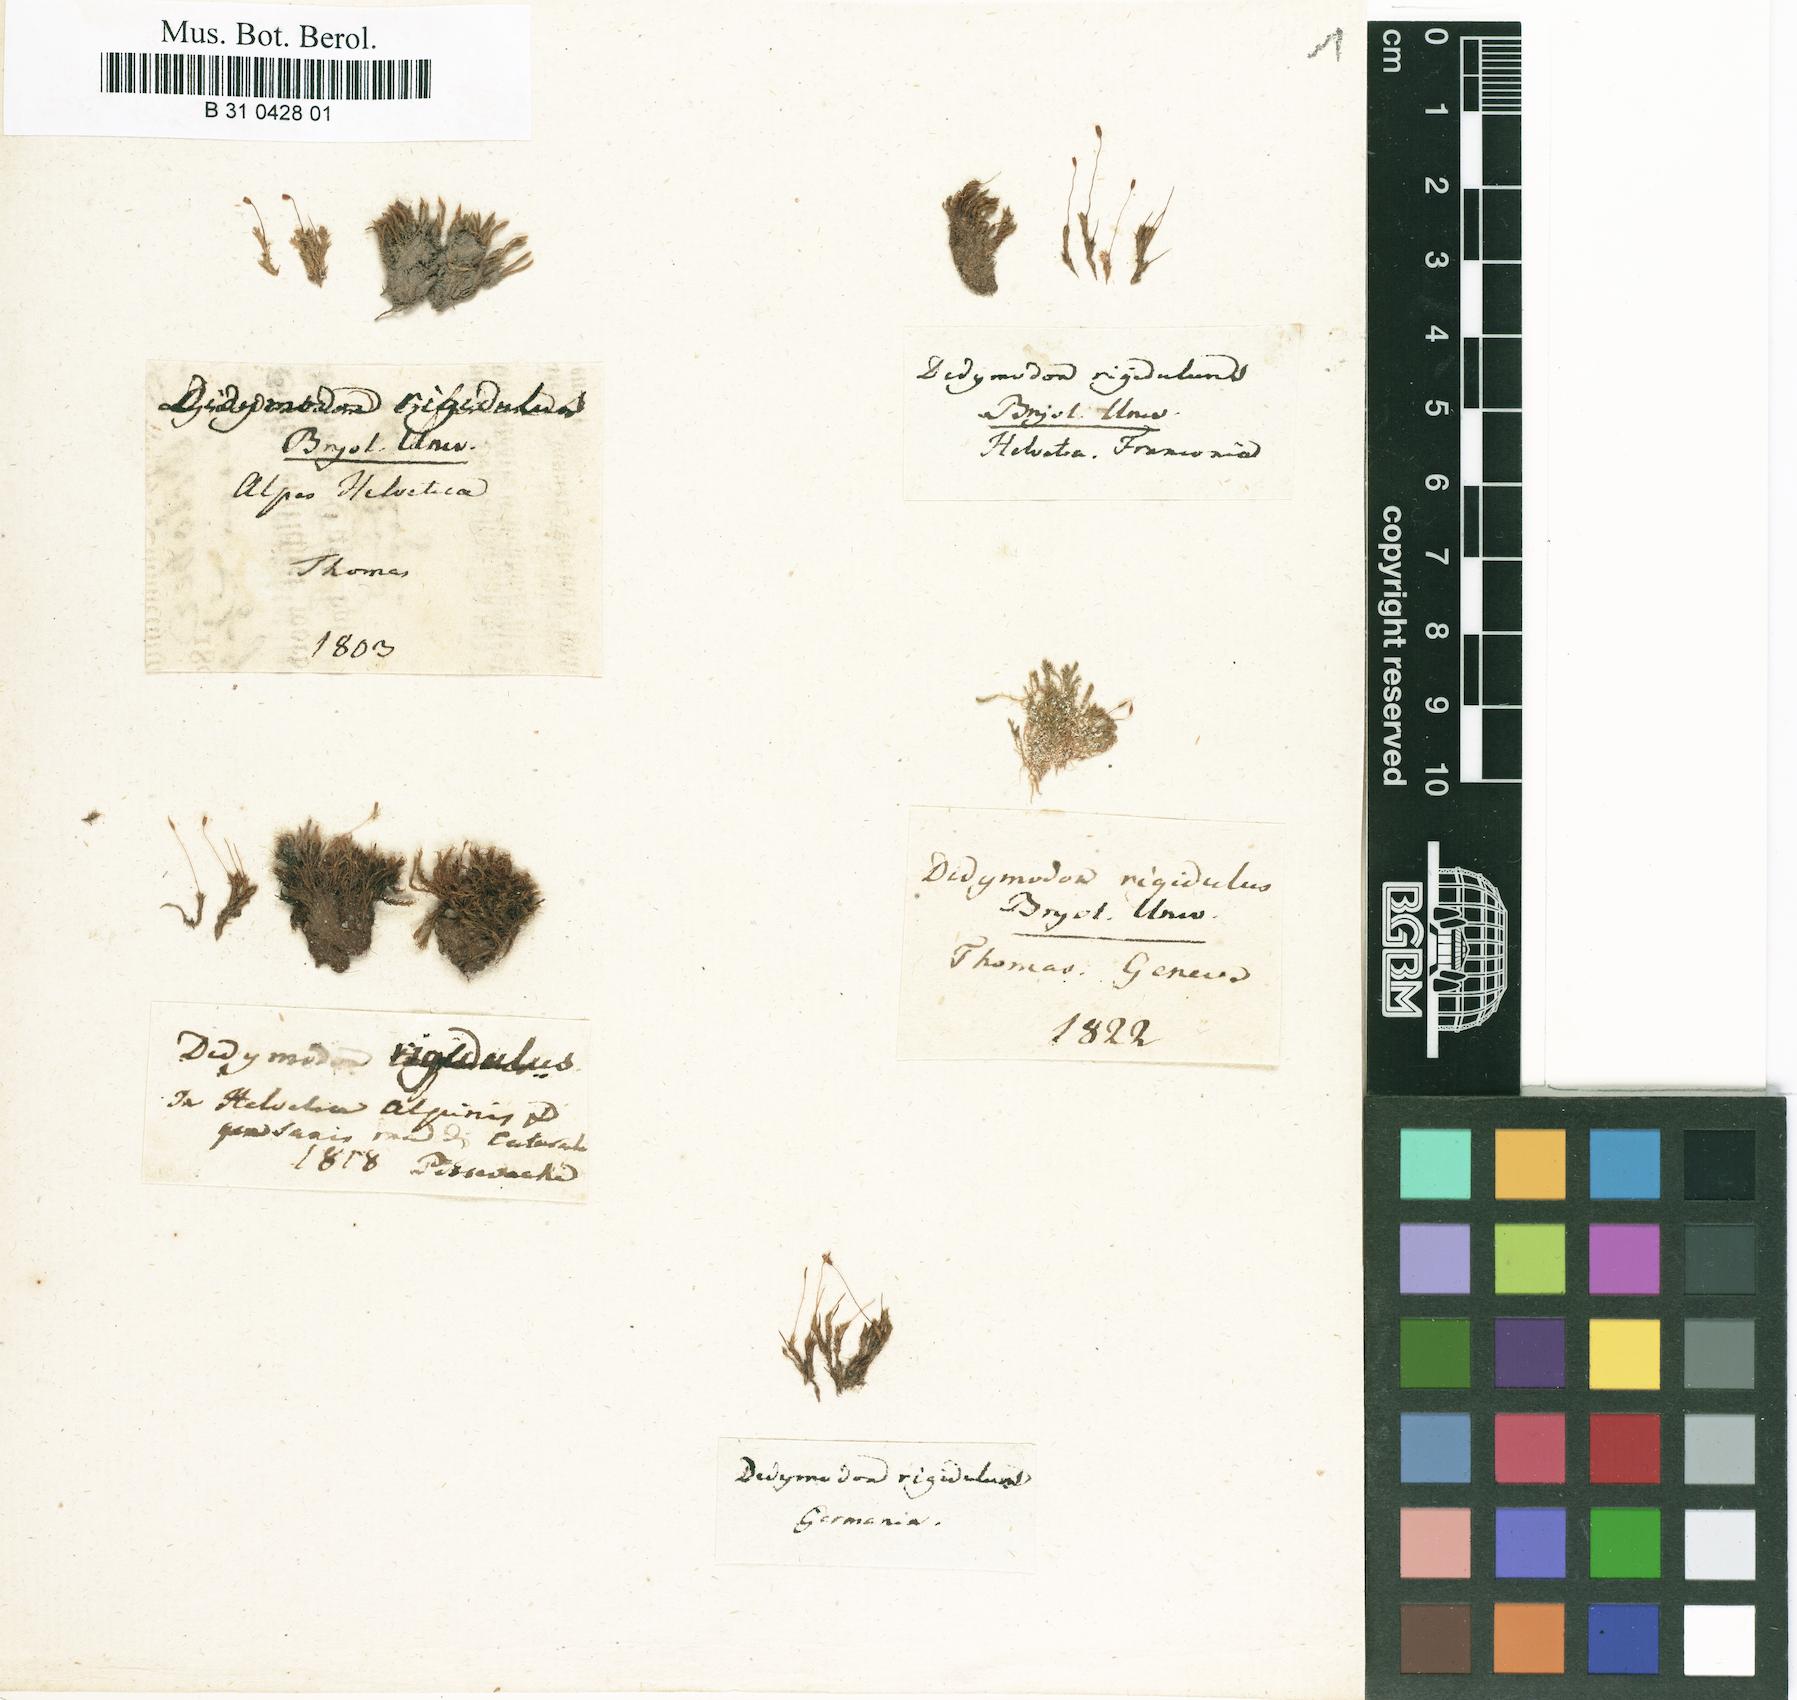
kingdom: Plantae
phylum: Bryophyta
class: Bryopsida
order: Pottiales
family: Pottiaceae
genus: Didymodon
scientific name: Didymodon rigidulus
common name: Rigid beard-moss
